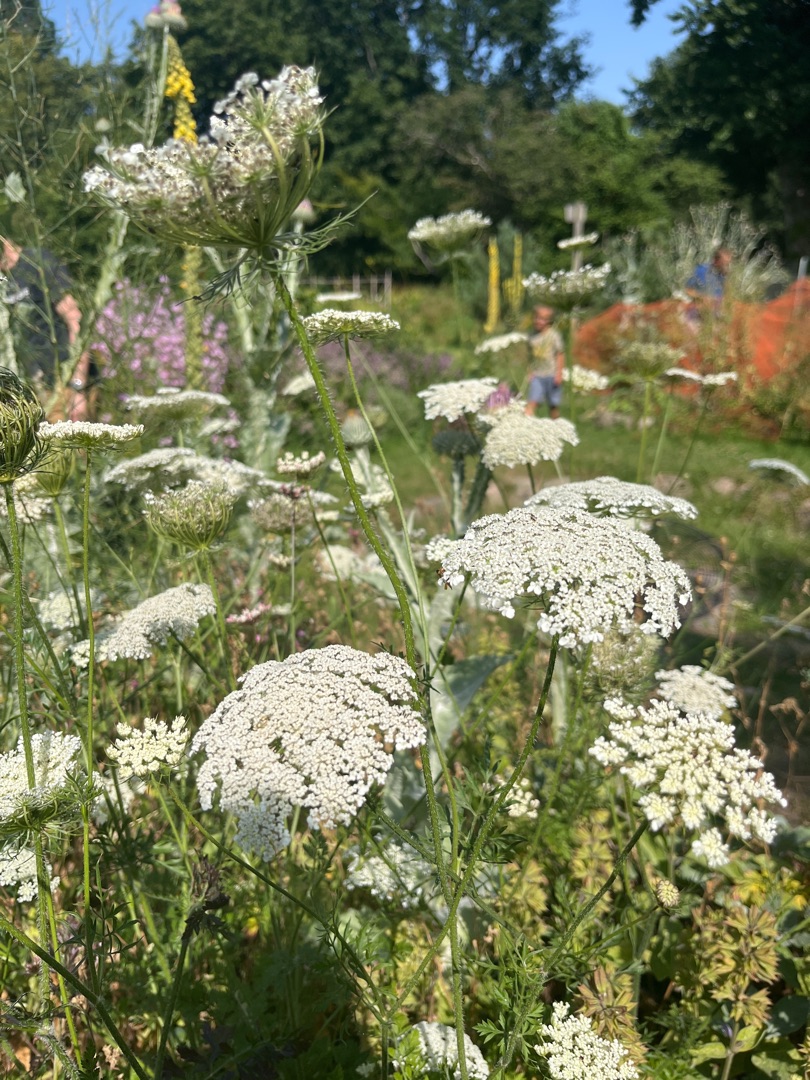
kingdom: Plantae
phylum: Tracheophyta
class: Magnoliopsida
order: Apiales
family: Apiaceae
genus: Daucus
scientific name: Daucus carota
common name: Gulerod
